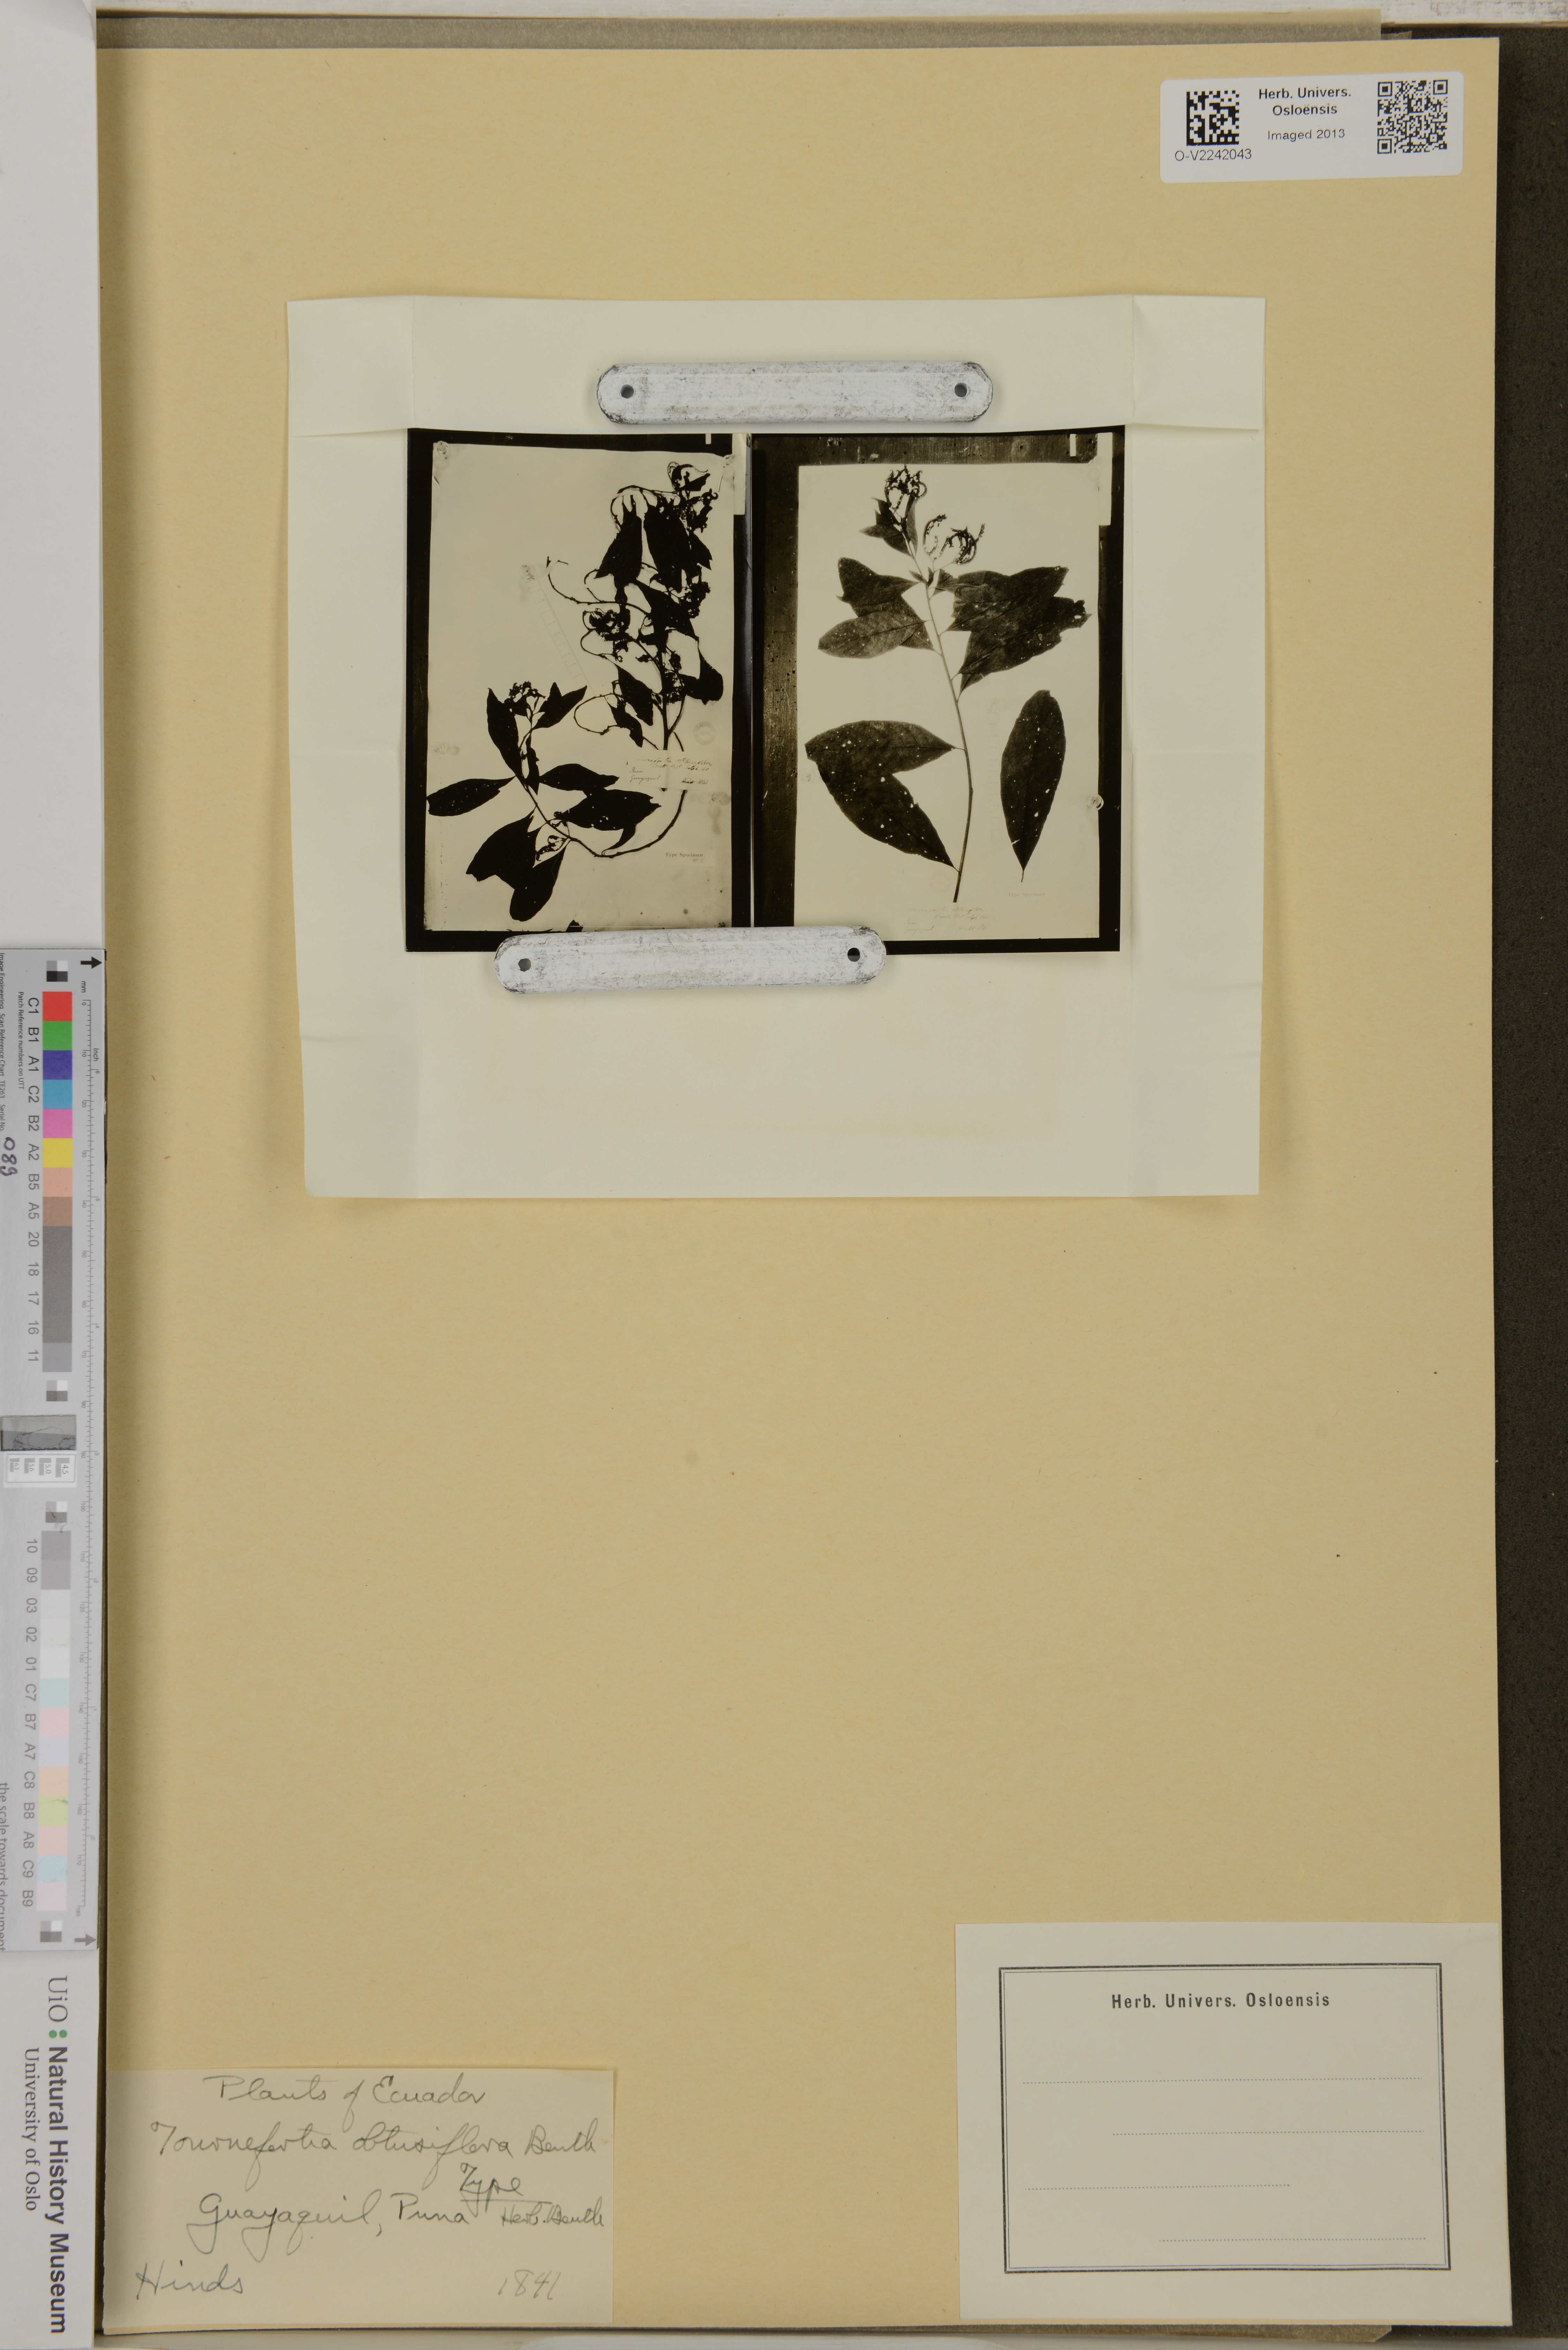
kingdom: Plantae
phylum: Tracheophyta
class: Magnoliopsida
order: Boraginales
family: Heliotropiaceae
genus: Tournefortia
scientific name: Tournefortia obtusiflora
